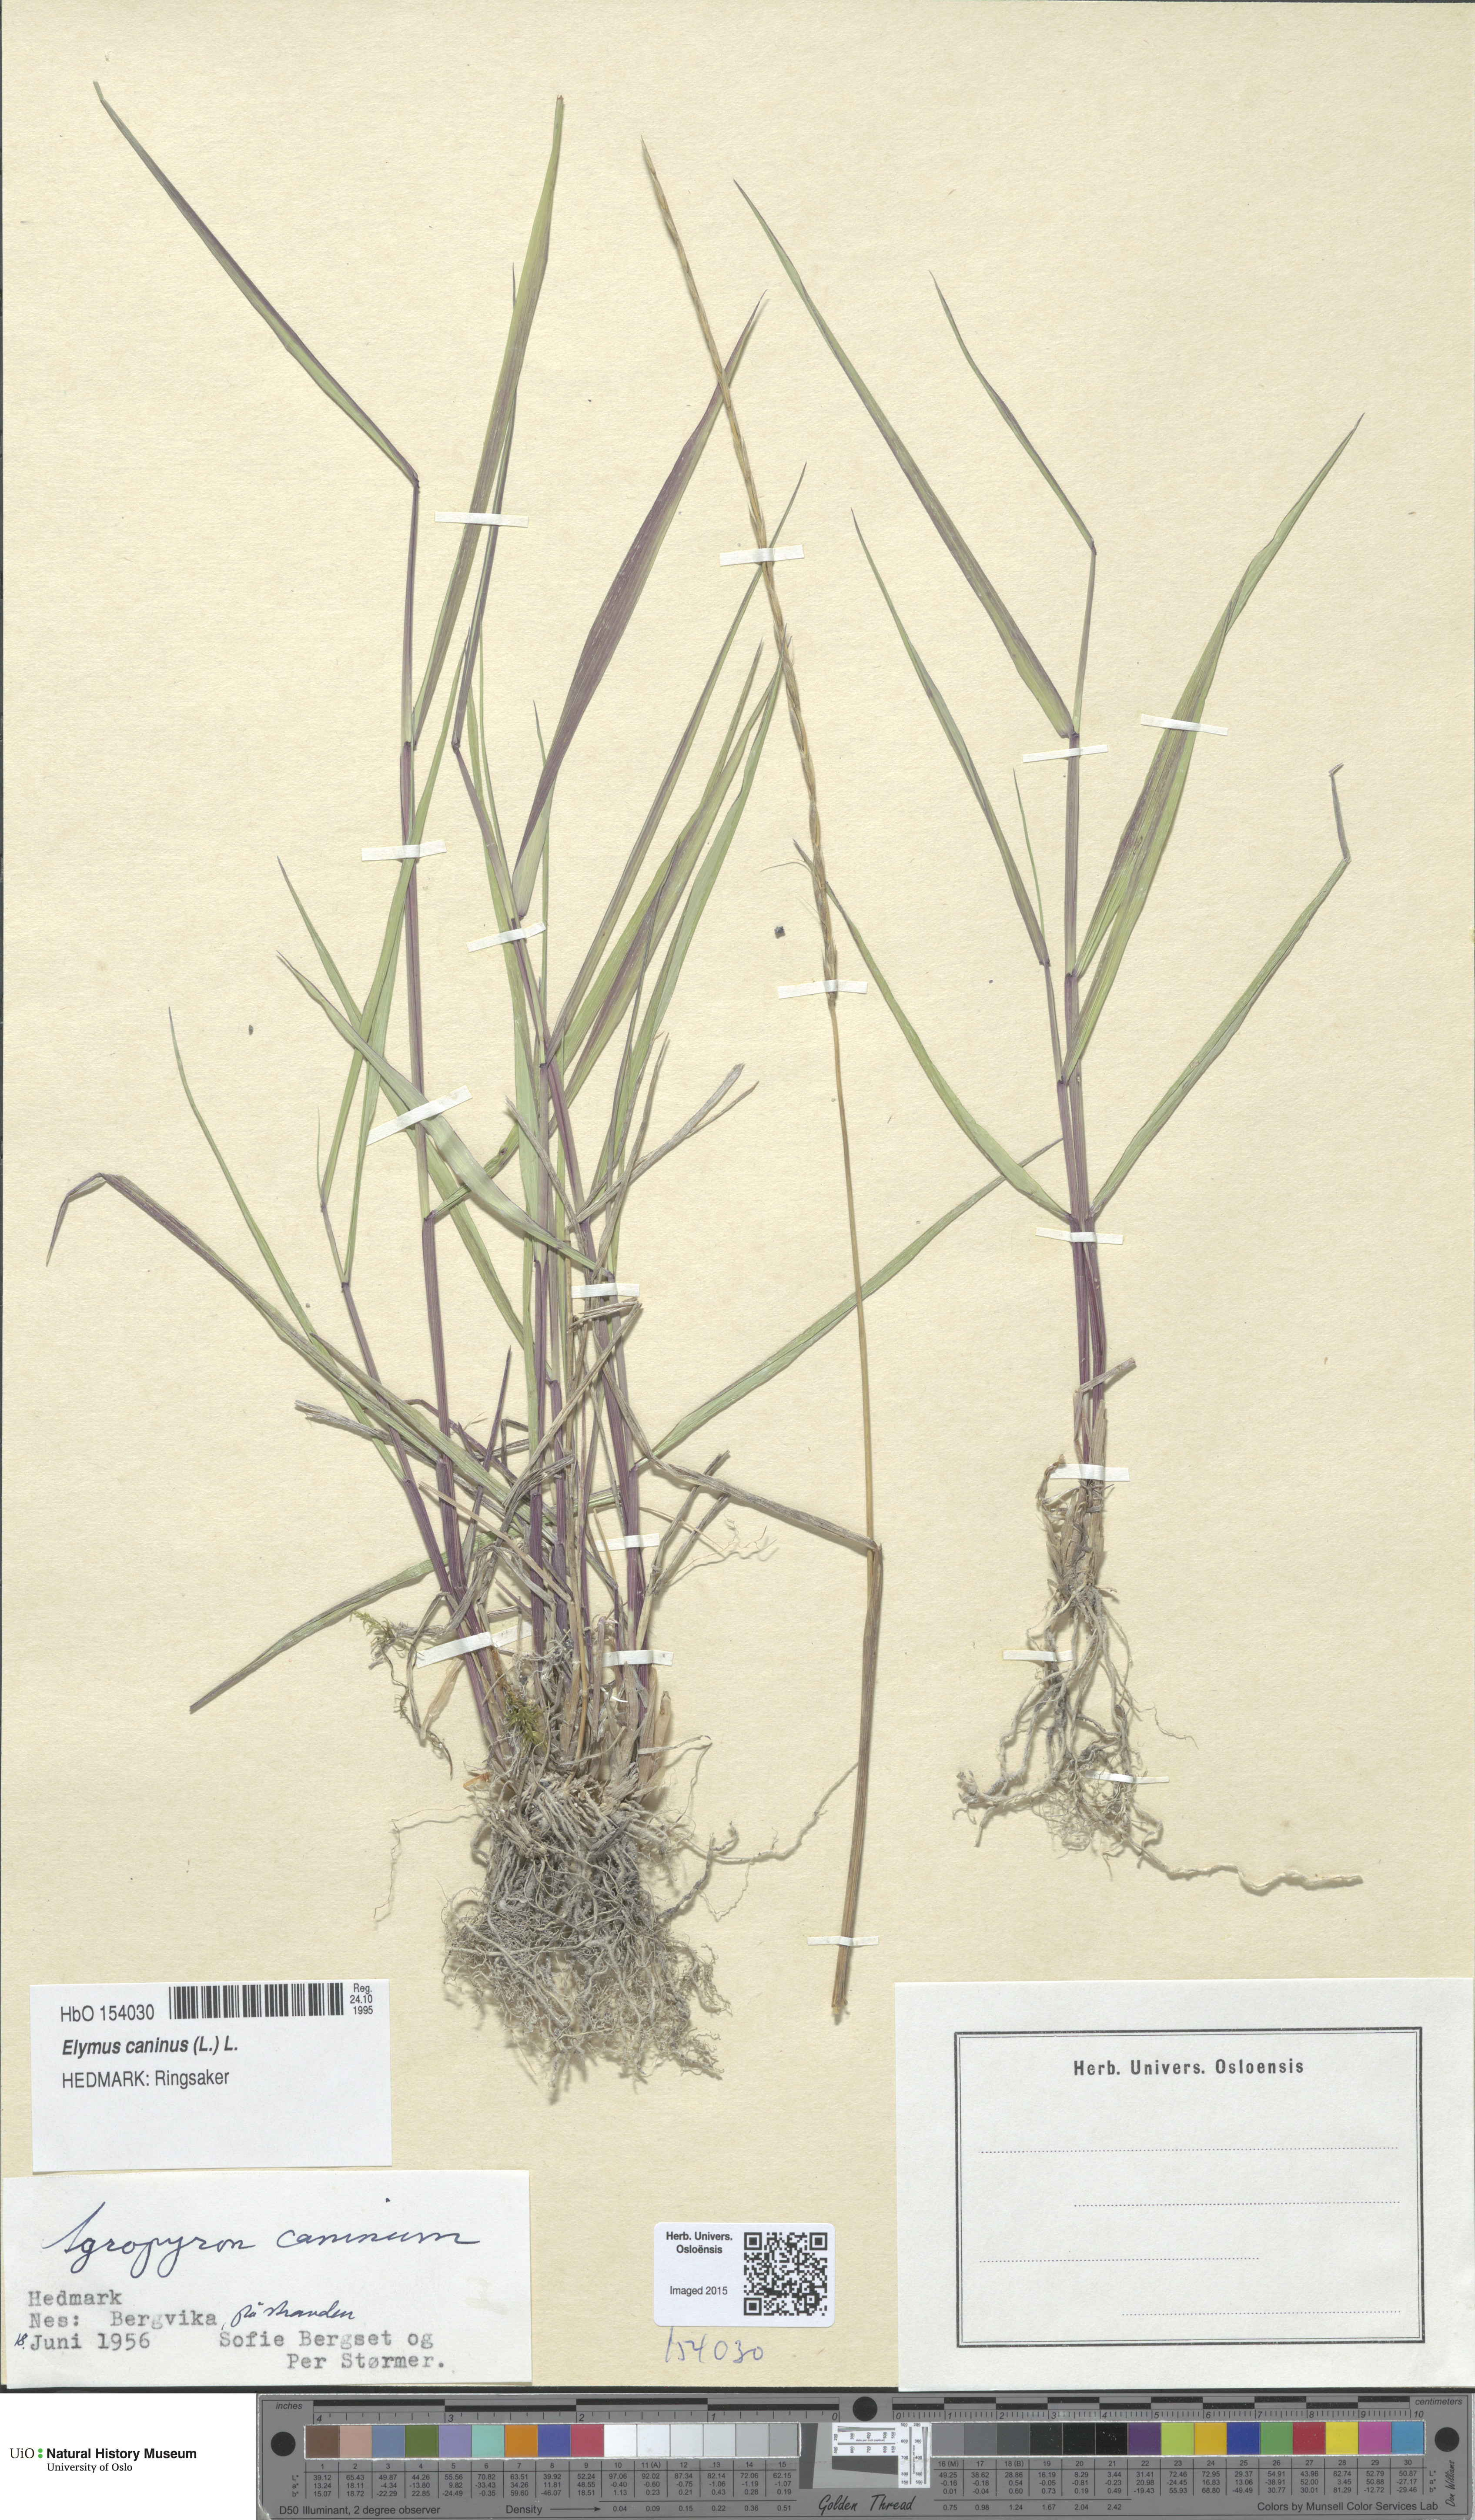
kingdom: Plantae
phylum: Tracheophyta
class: Liliopsida
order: Poales
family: Poaceae
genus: Elymus
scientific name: Elymus caninus
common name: Bearded couch
